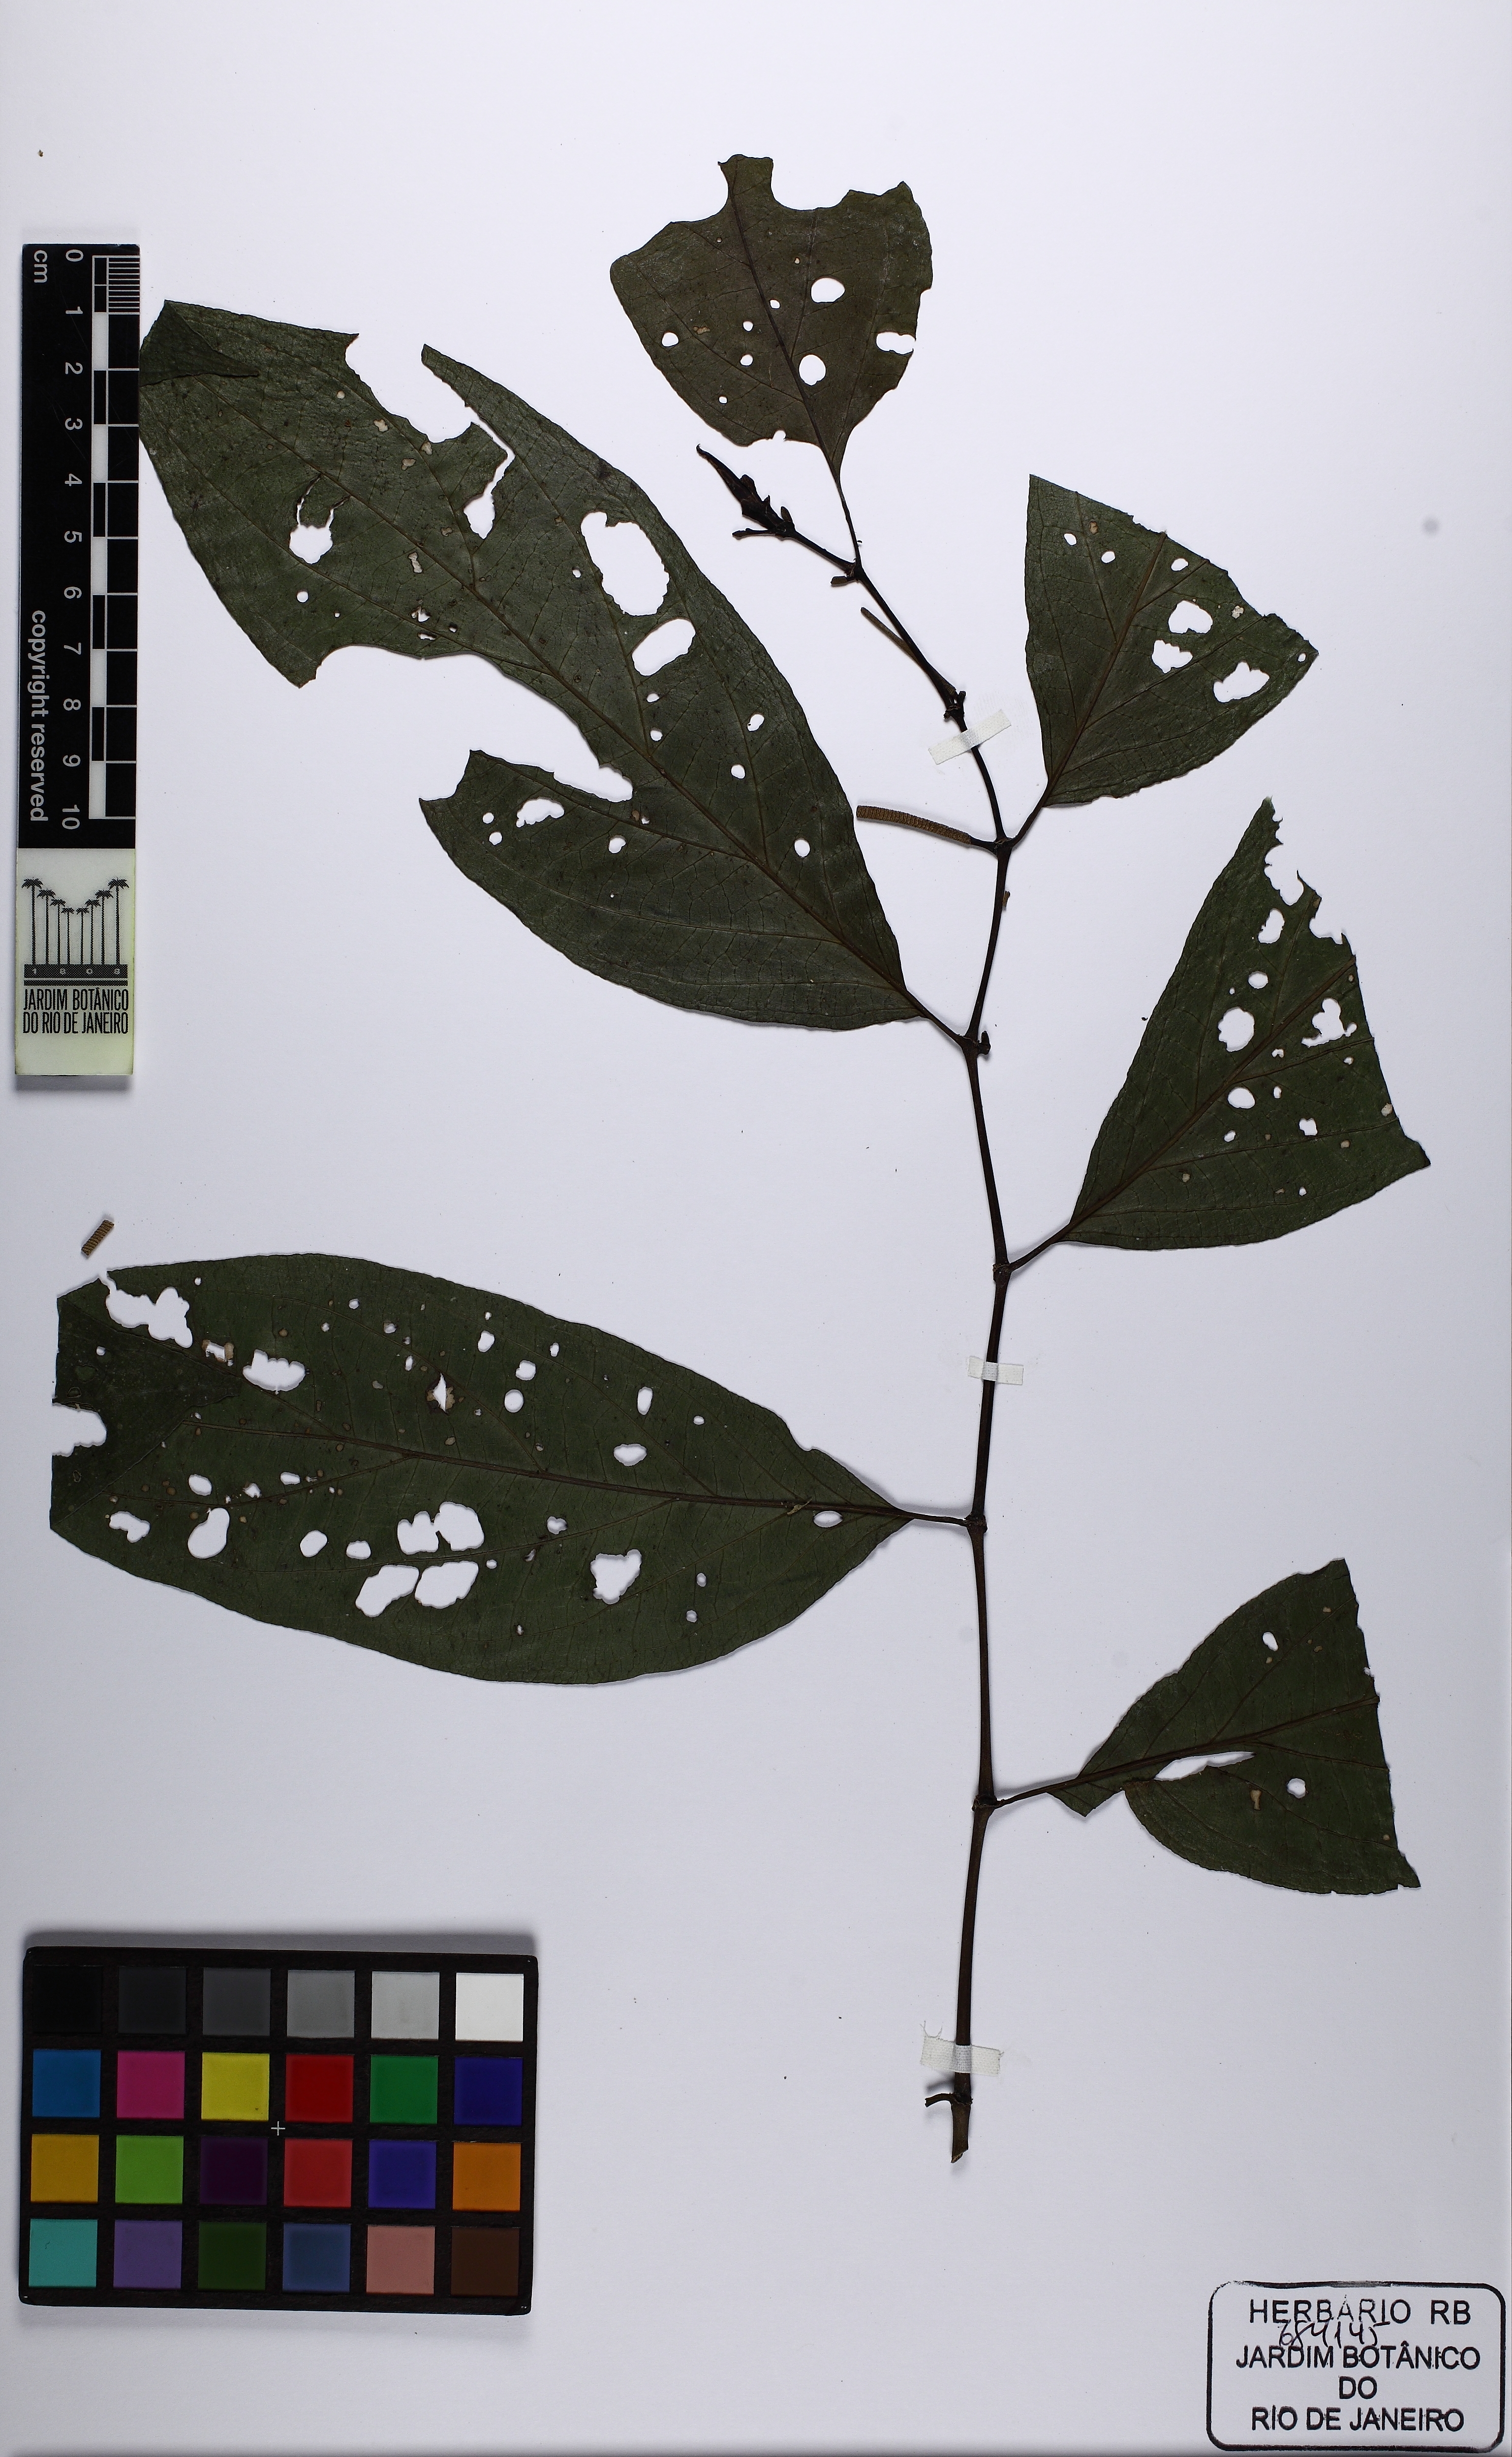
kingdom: Plantae
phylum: Tracheophyta
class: Magnoliopsida
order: Piperales
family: Piperaceae
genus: Piper
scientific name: Piper
